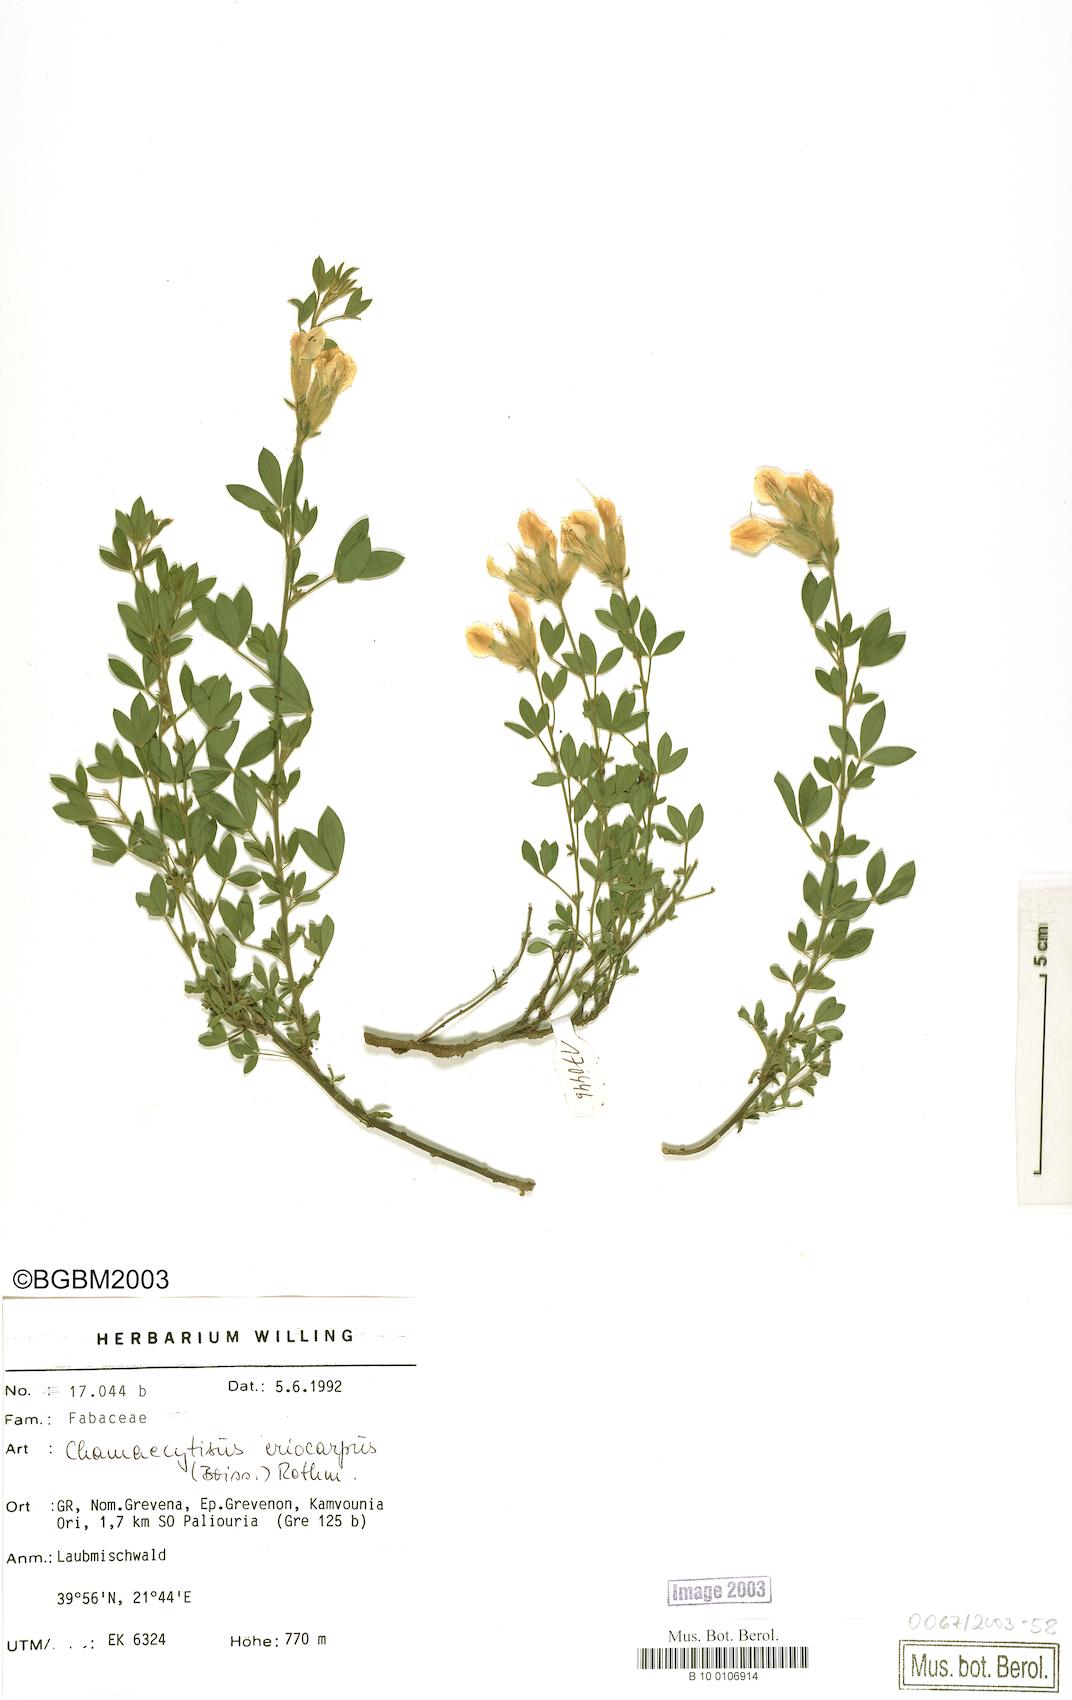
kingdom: Plantae
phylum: Tracheophyta
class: Magnoliopsida
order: Fabales
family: Fabaceae
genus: Chamaecytisus
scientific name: Chamaecytisus eriocarpus
